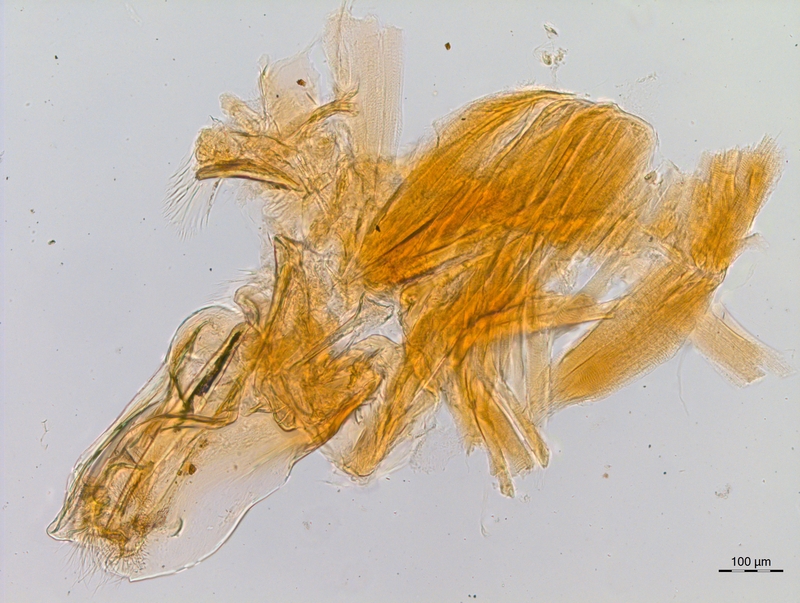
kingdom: Animalia
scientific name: Animalia
